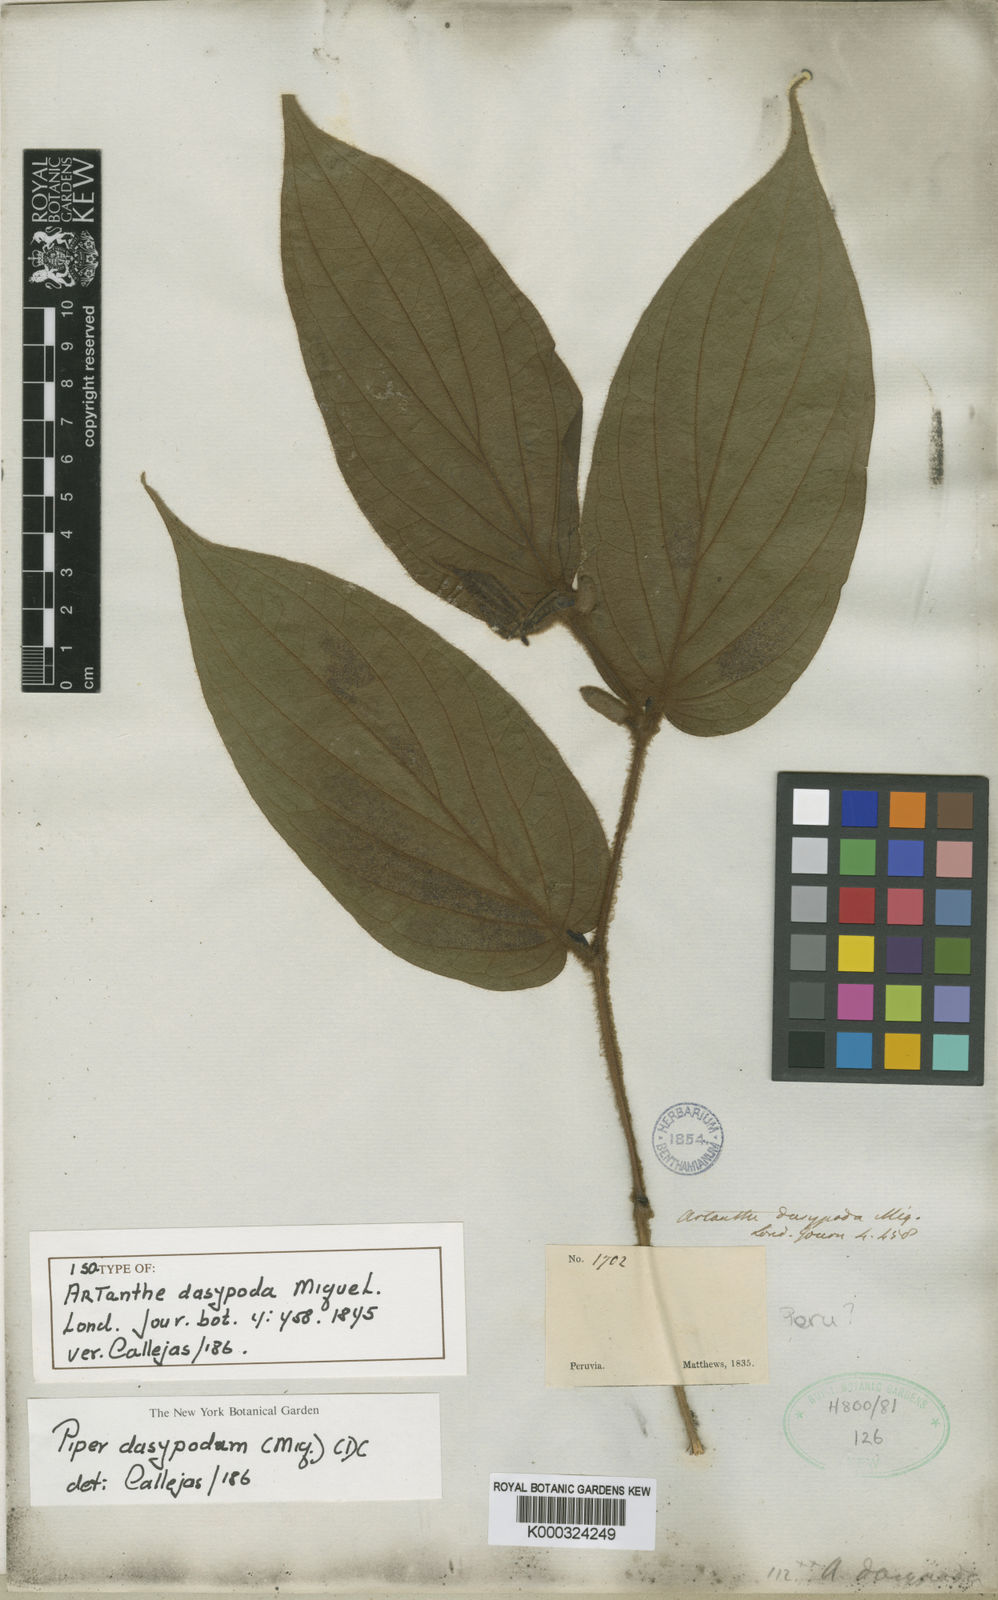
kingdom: Plantae
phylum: Tracheophyta
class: Magnoliopsida
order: Piperales
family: Piperaceae
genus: Piper
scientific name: Piper dasypodum
